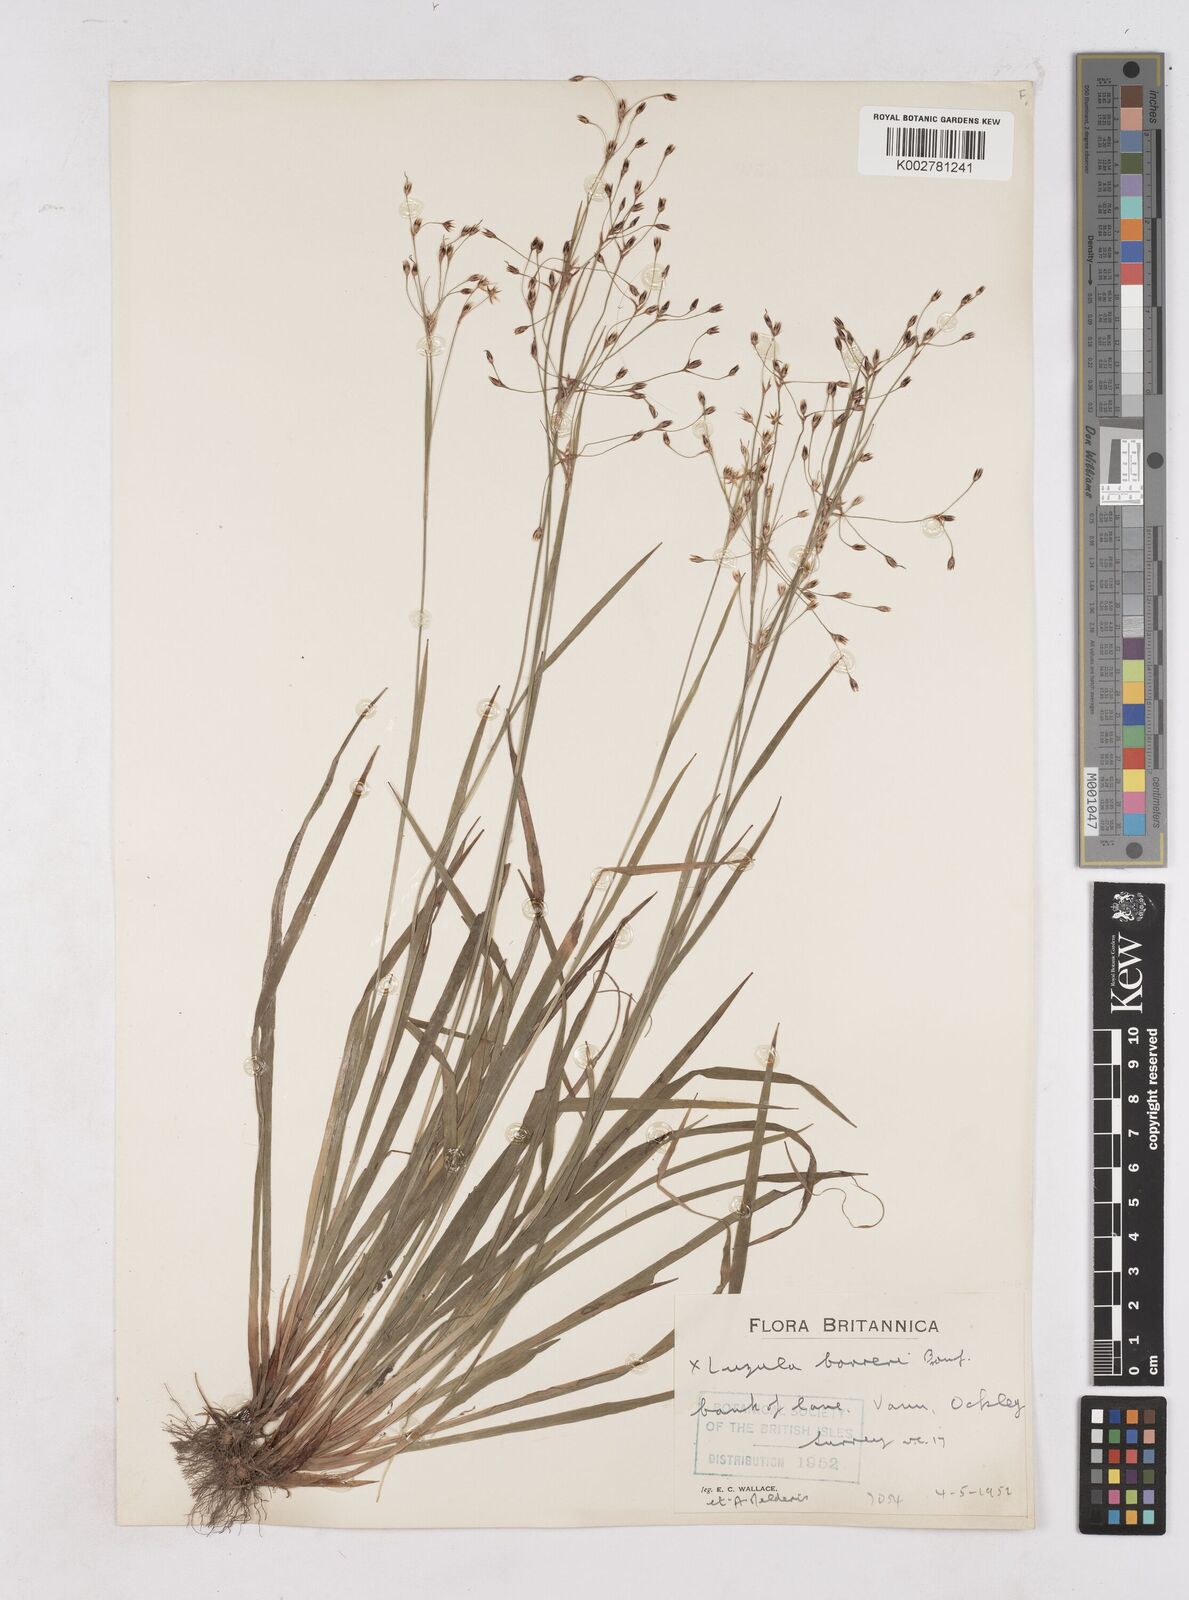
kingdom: Plantae
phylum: Tracheophyta
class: Liliopsida
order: Poales
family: Juncaceae
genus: Luzula
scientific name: Luzula forsteri
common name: Southern wood-rush
